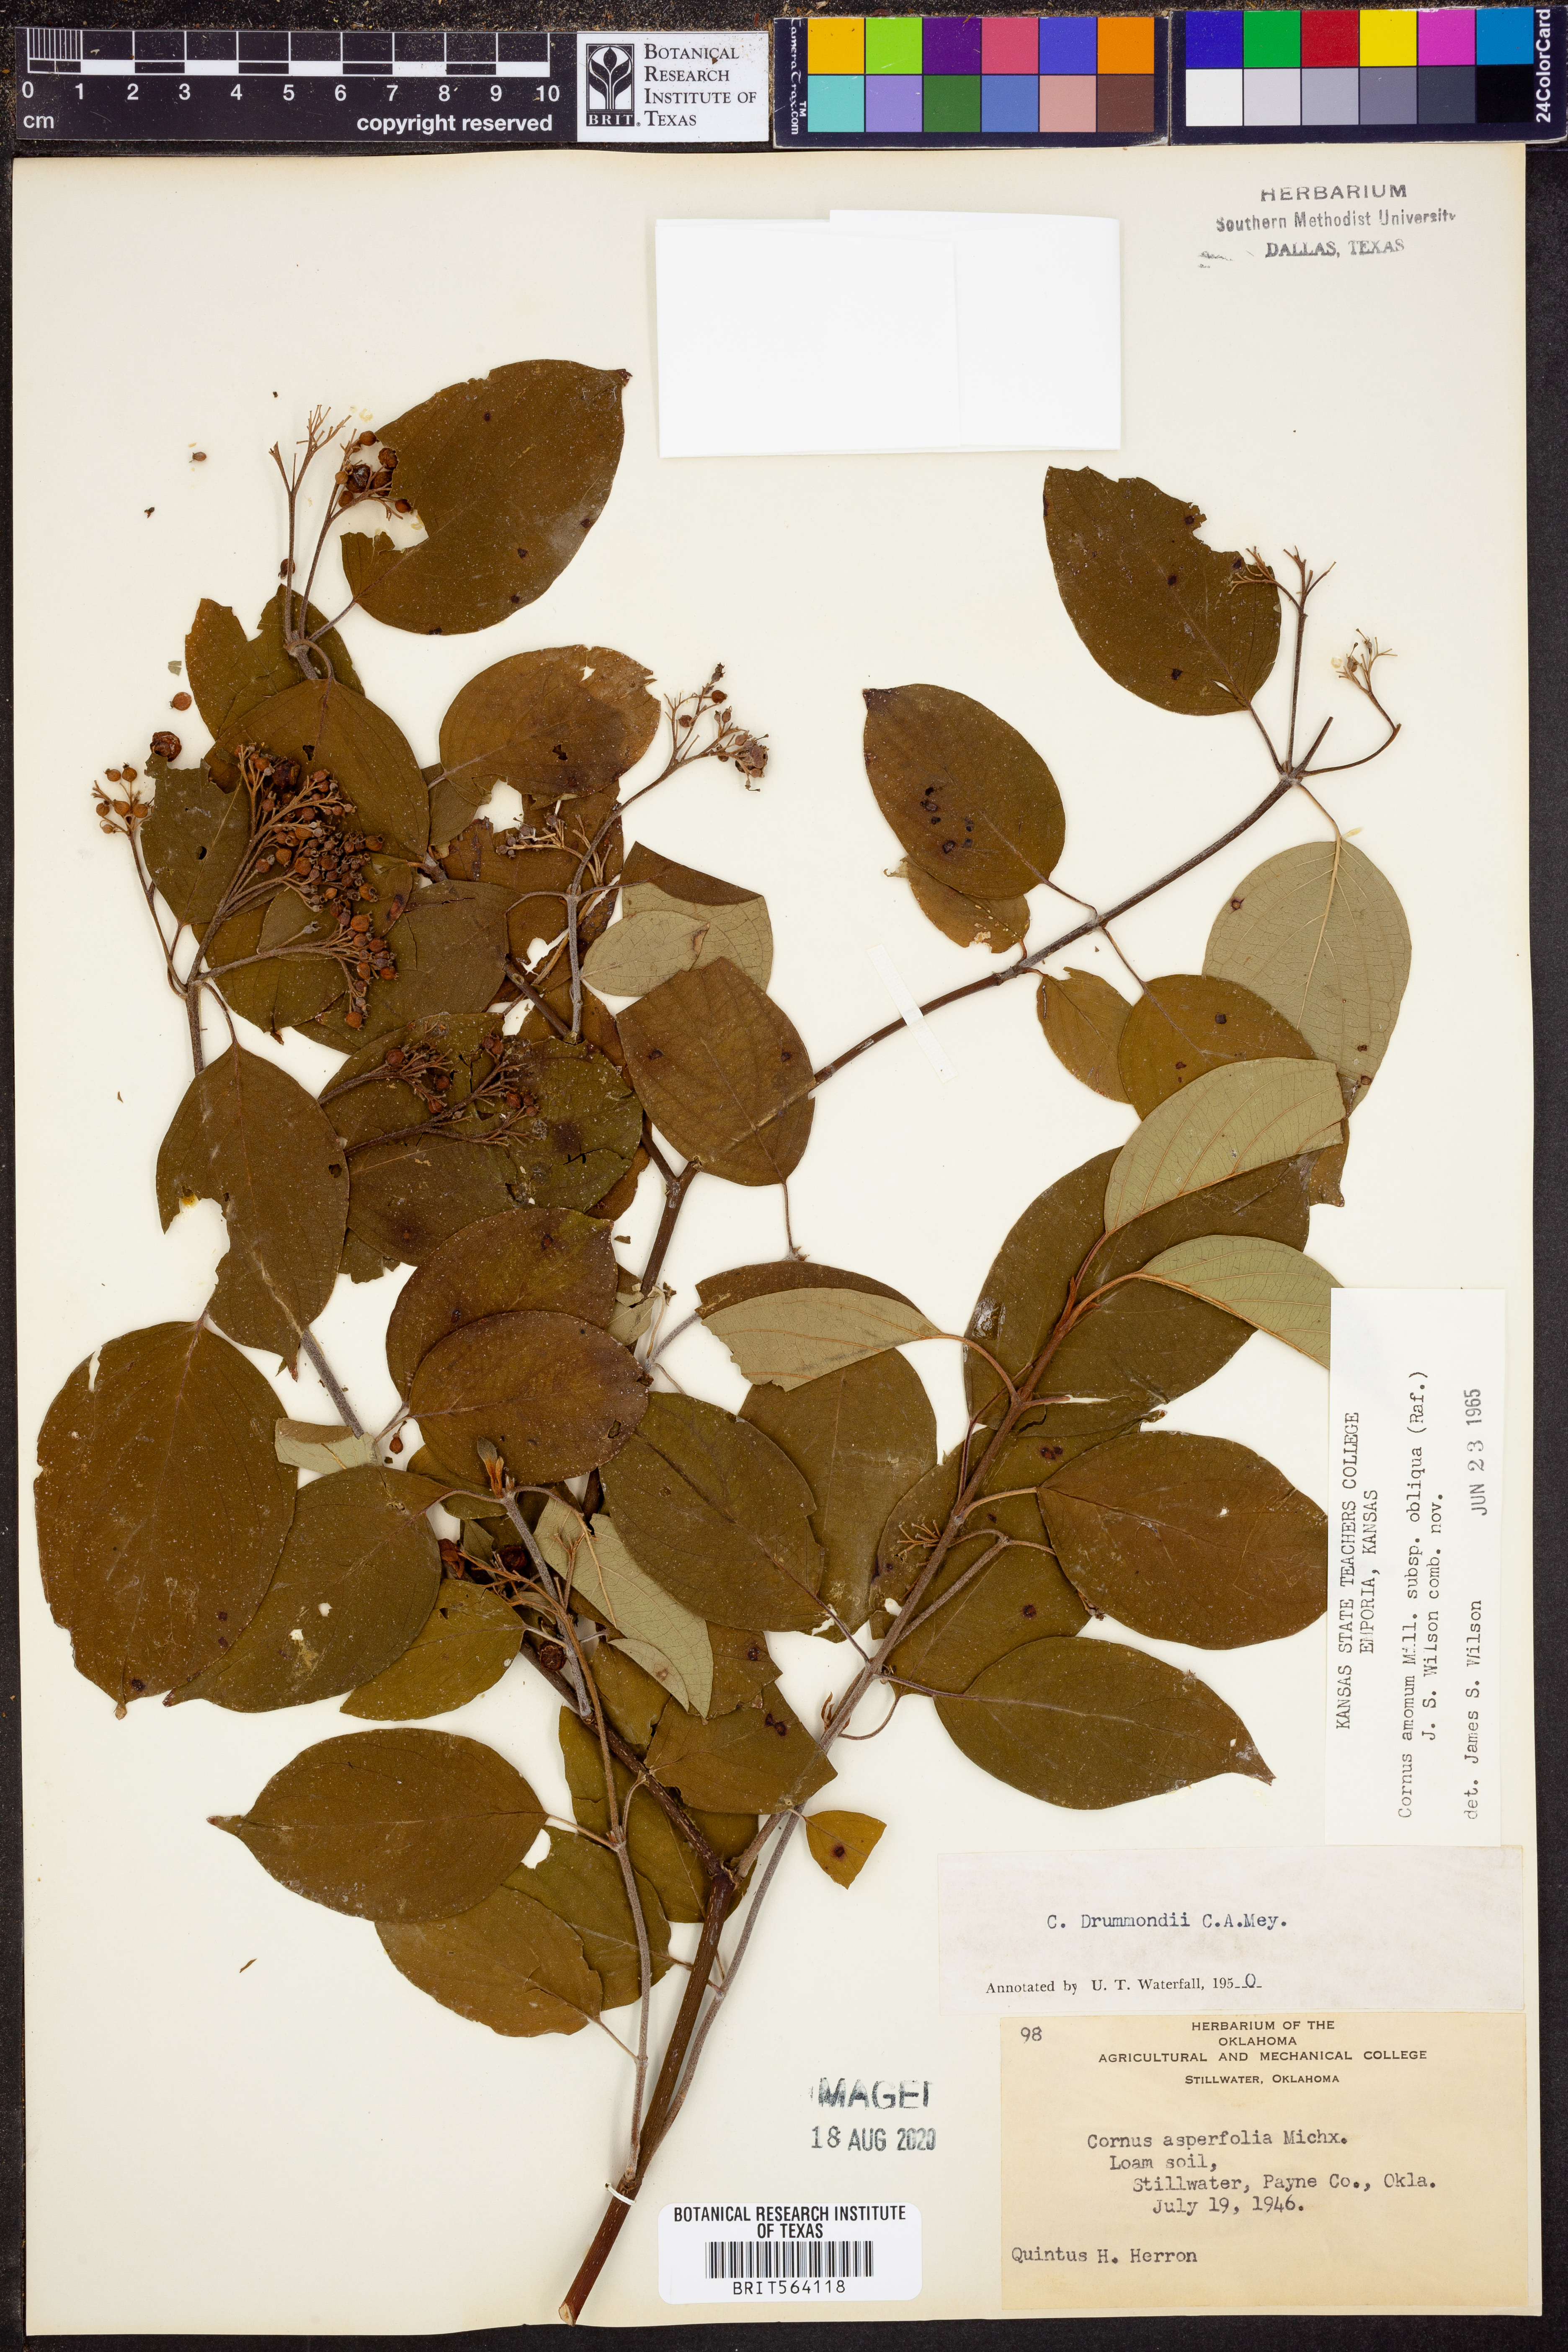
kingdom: Plantae
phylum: Tracheophyta
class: Magnoliopsida
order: Cornales
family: Cornaceae
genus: Cornus
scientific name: Cornus obliqua
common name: Pale dogwood
